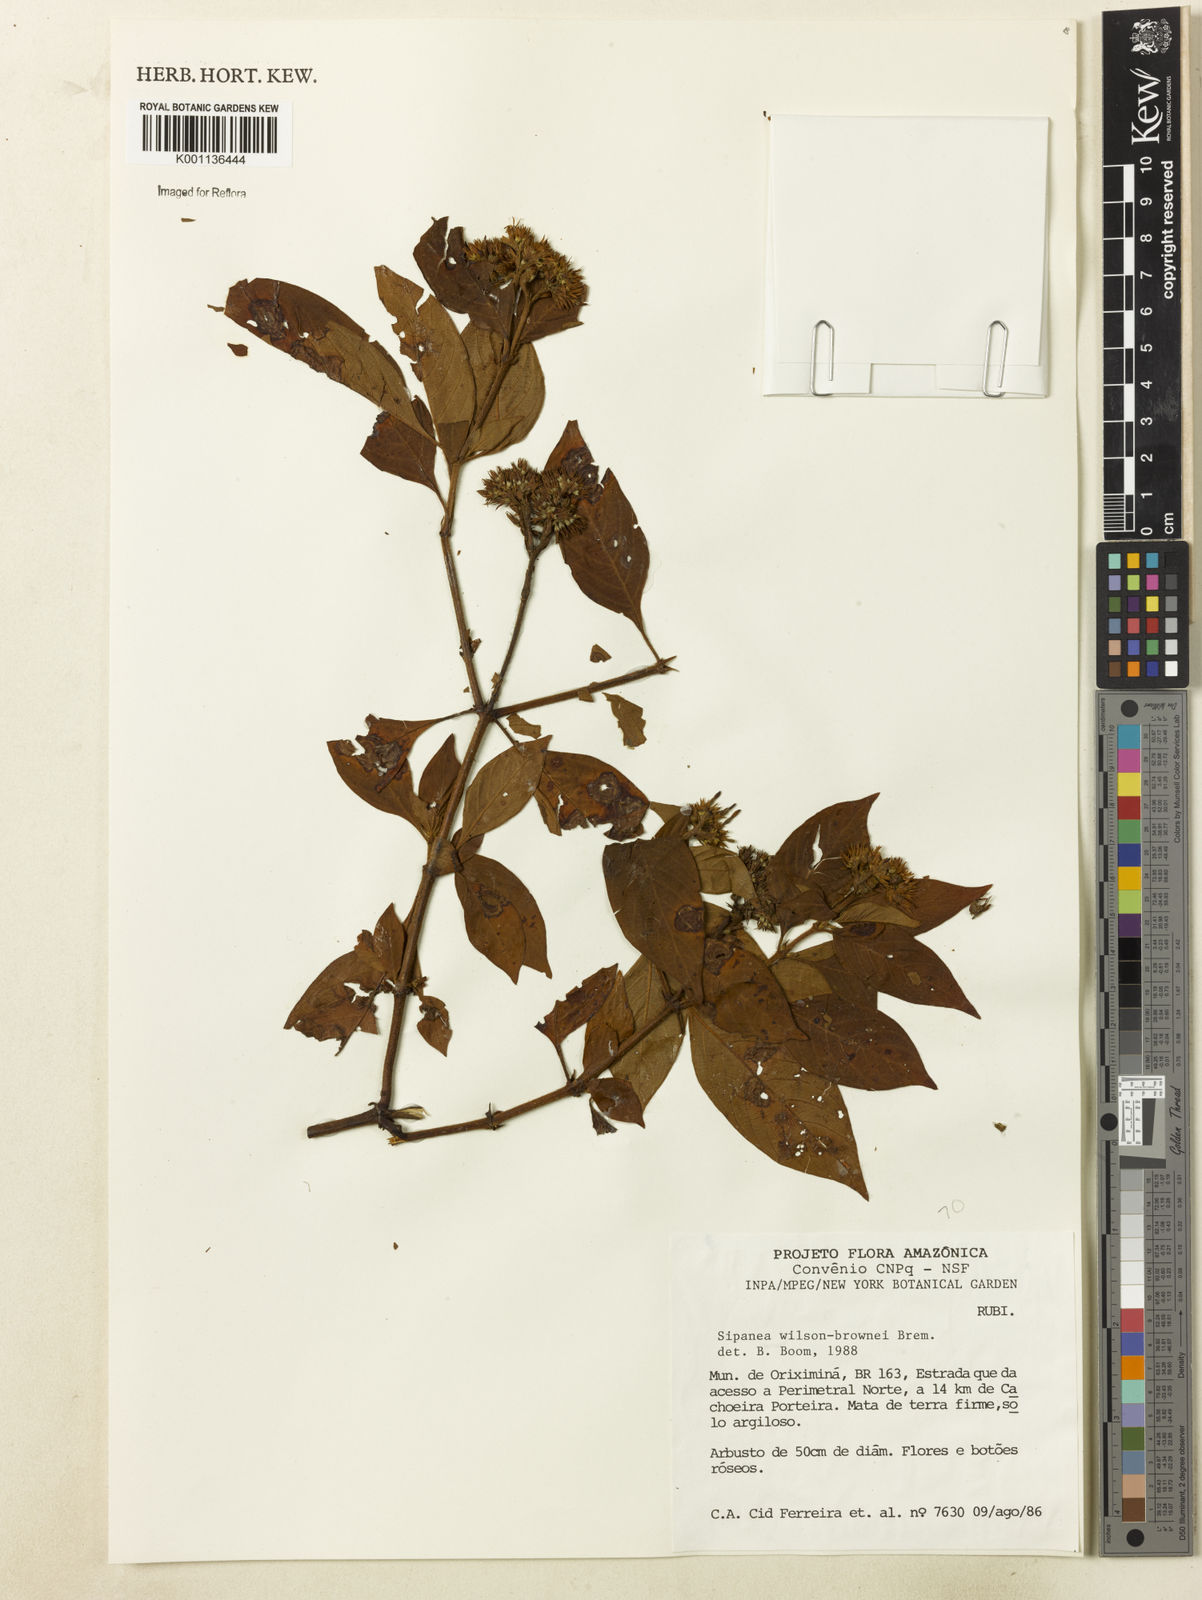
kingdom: Plantae
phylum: Tracheophyta
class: Magnoliopsida
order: Gentianales
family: Rubiaceae
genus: Limnosipanea
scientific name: Limnosipanea palustris
